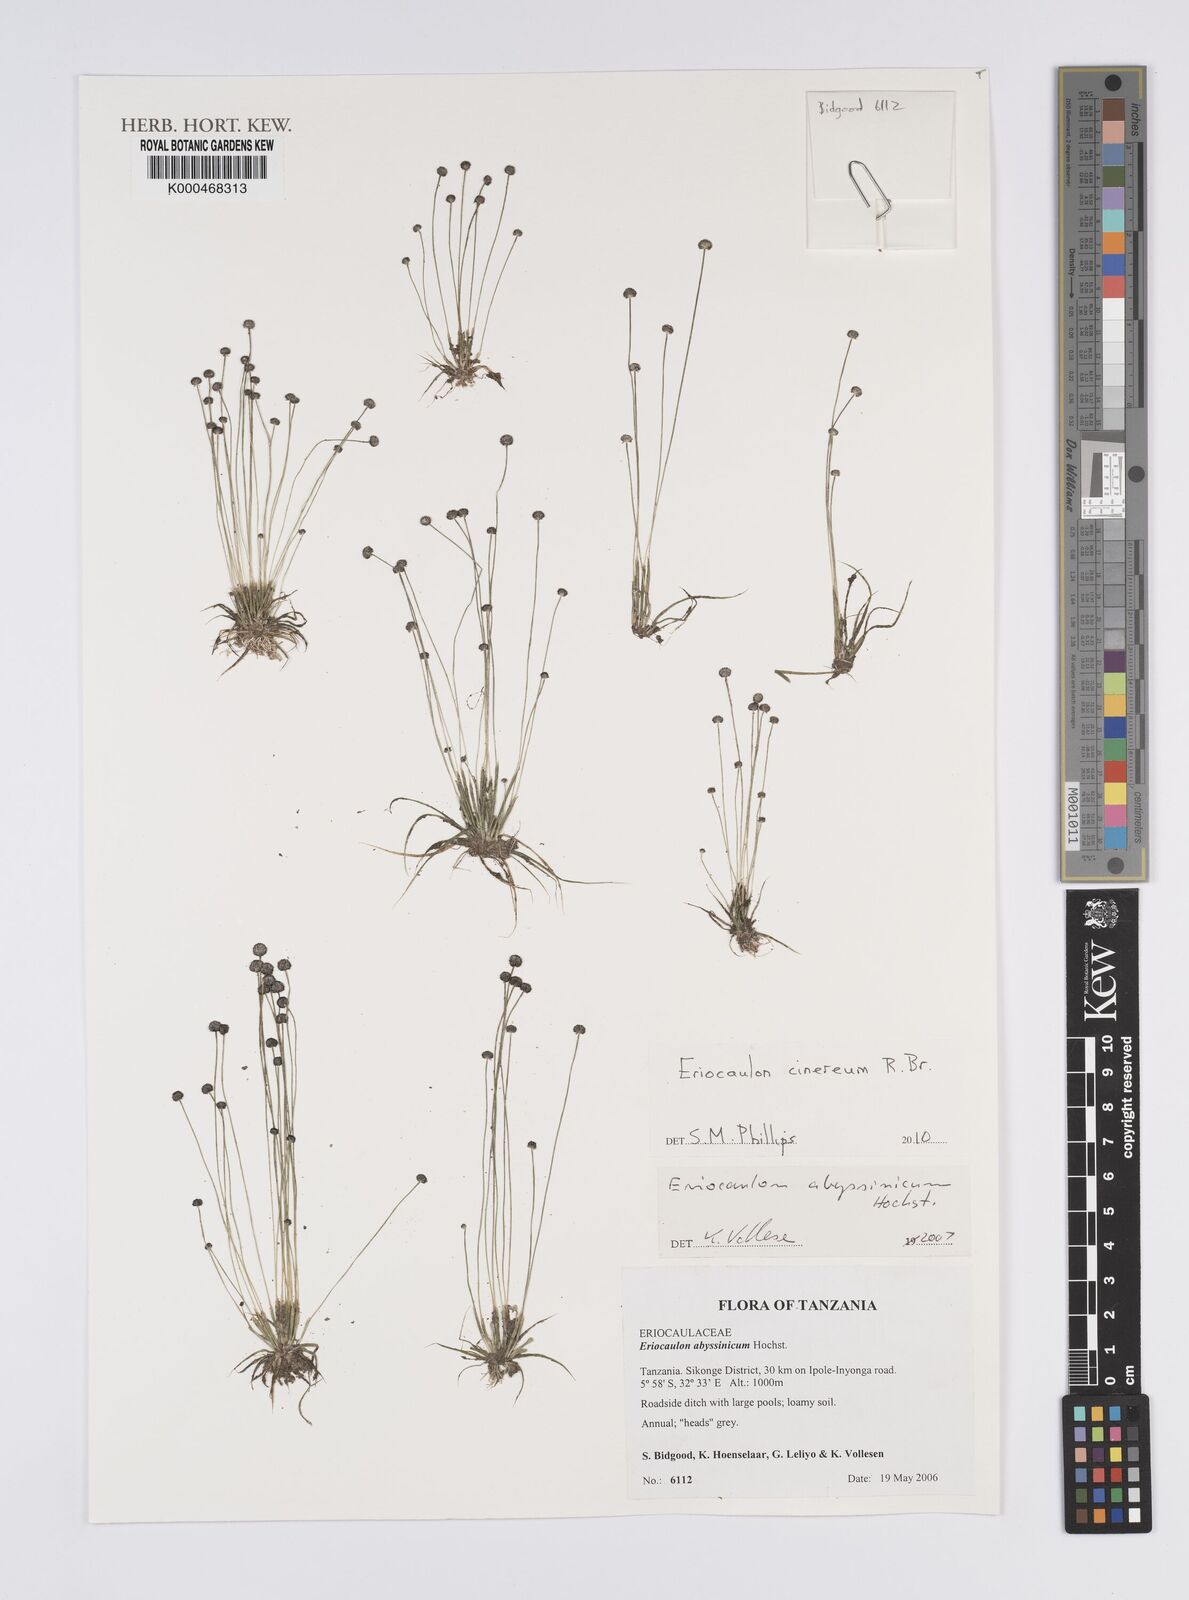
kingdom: Plantae
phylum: Tracheophyta
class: Liliopsida
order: Poales
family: Eriocaulaceae
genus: Eriocaulon
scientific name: Eriocaulon abyssinicum
